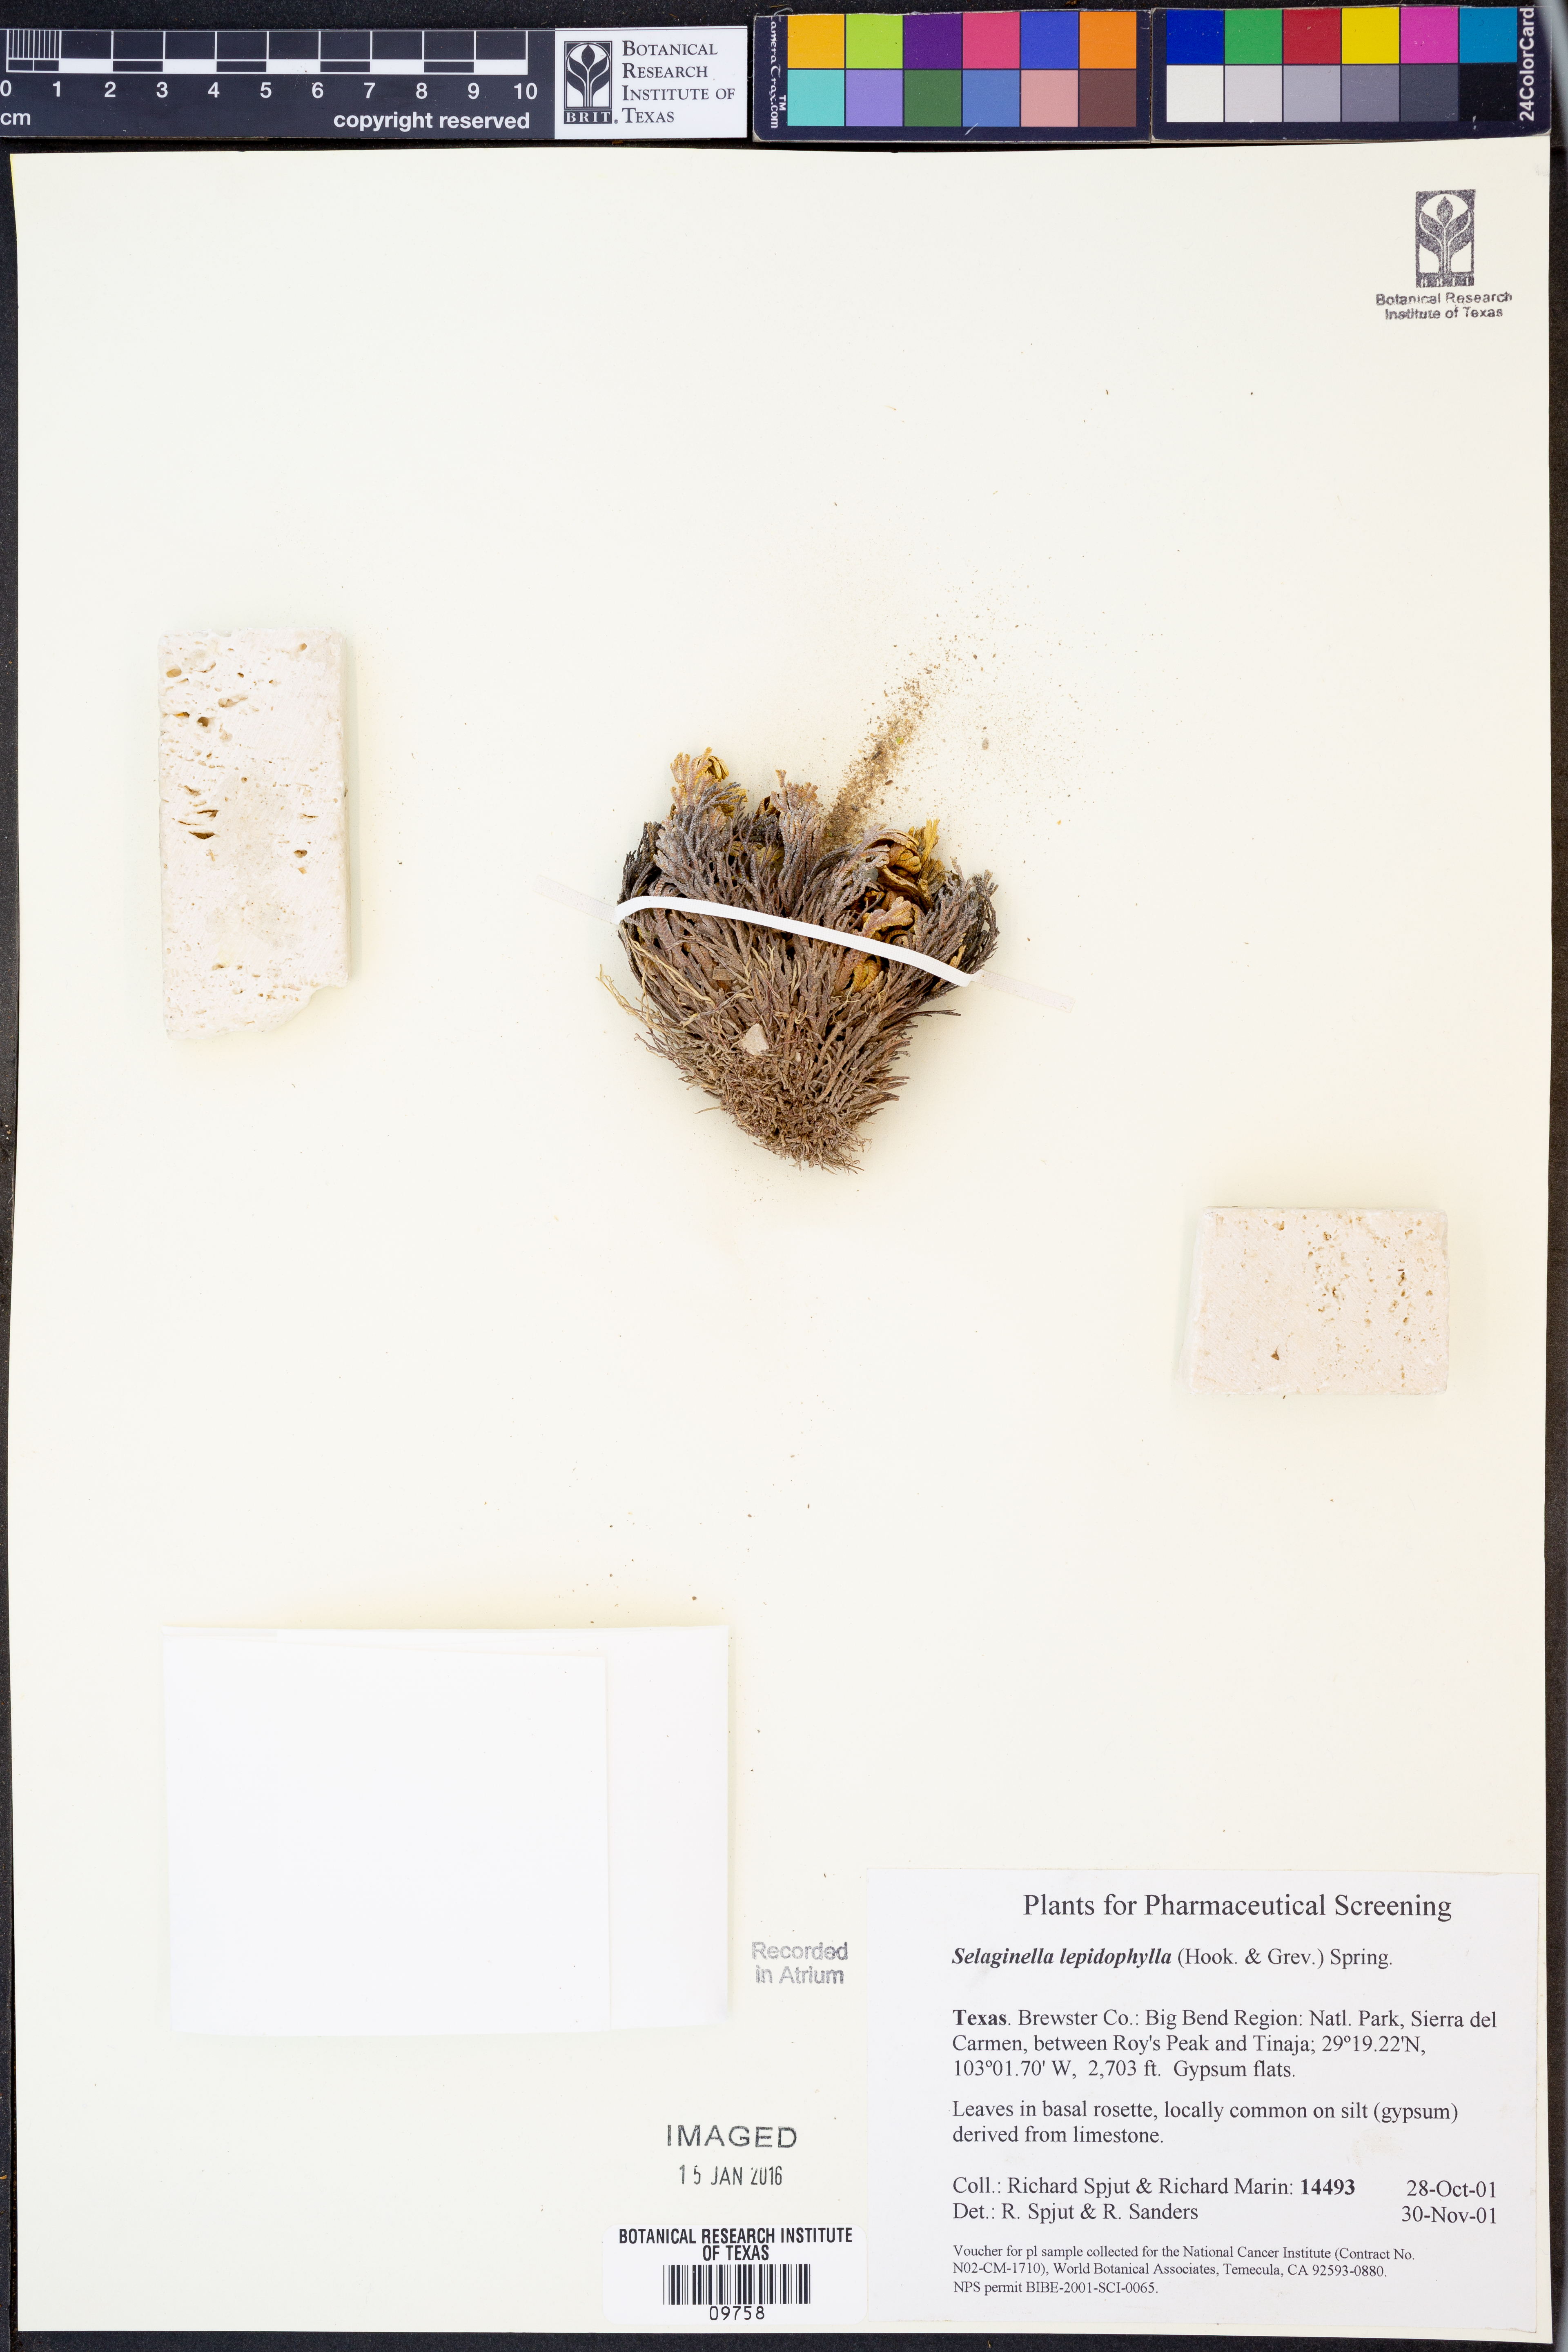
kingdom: Plantae
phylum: Tracheophyta
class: Lycopodiopsida
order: Selaginellales
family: Selaginellaceae
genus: Selaginella
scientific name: Selaginella lepidophylla
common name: Rose-of-jericho
